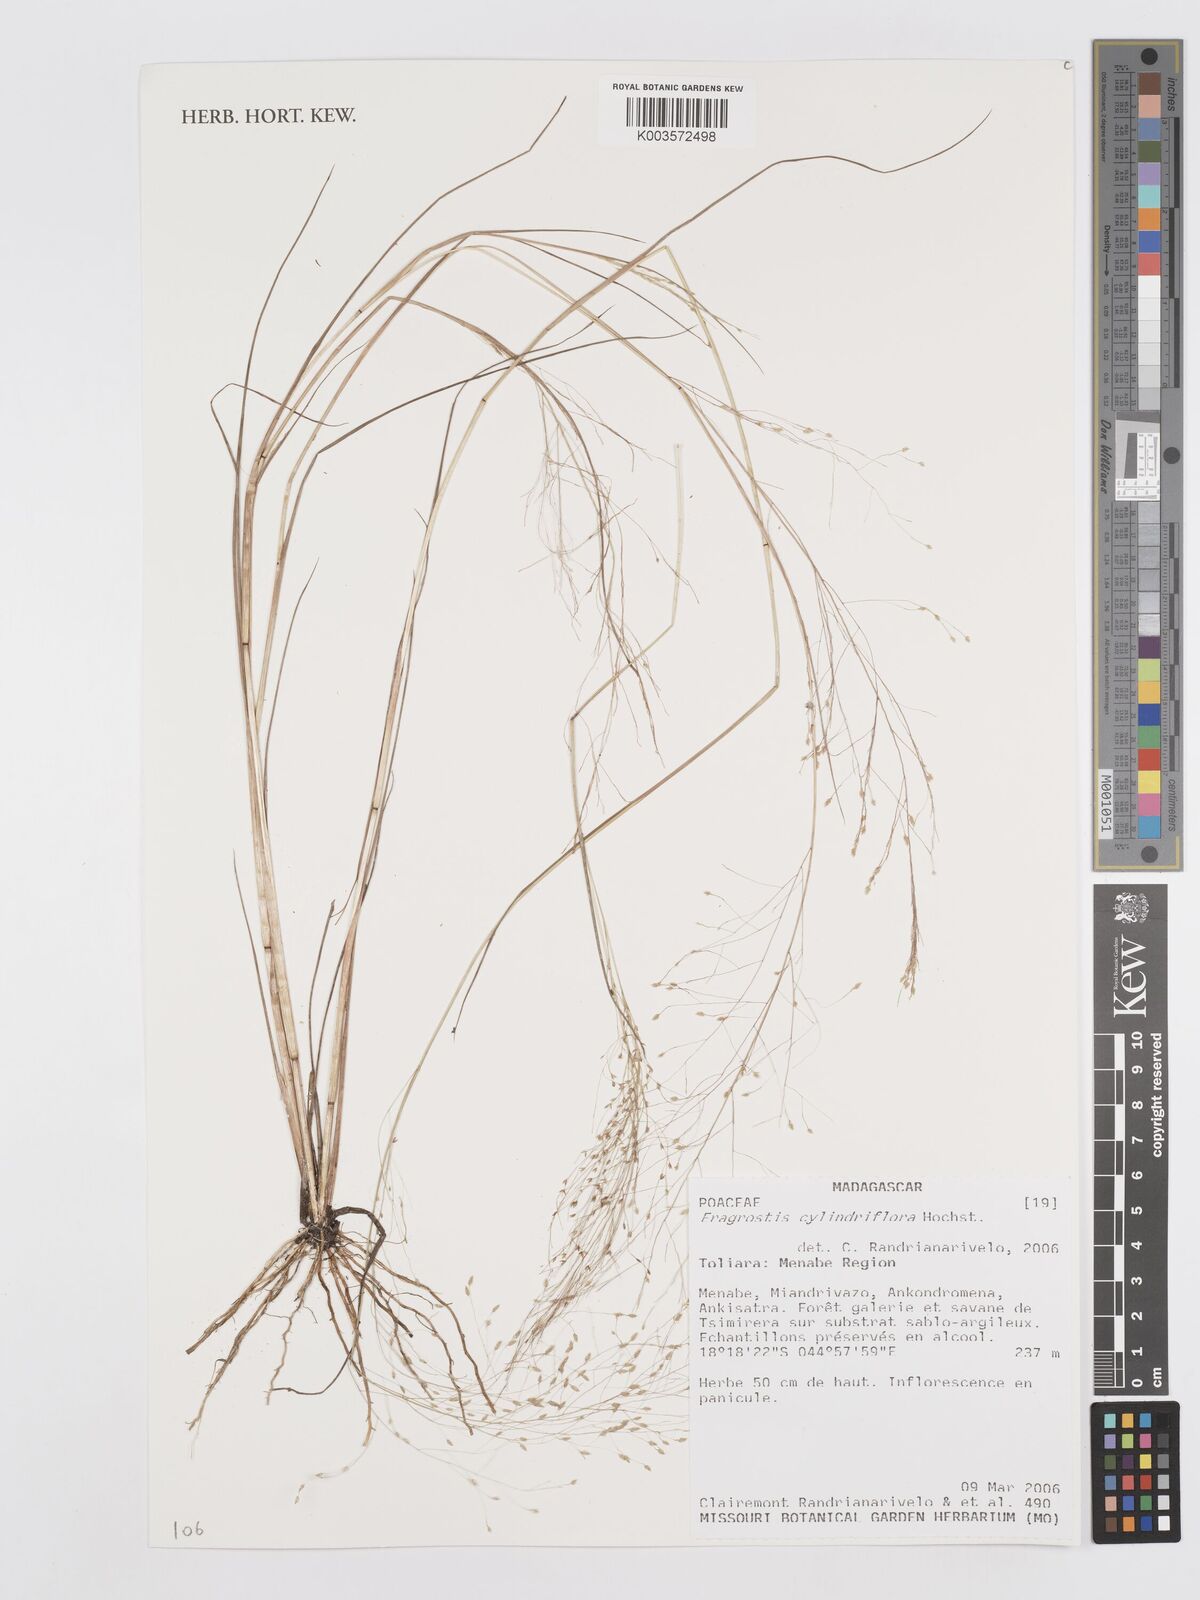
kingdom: Plantae
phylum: Tracheophyta
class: Liliopsida
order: Poales
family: Poaceae
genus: Eragrostis
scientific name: Eragrostis cylindriflora
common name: Cylinderflower lovegrass
